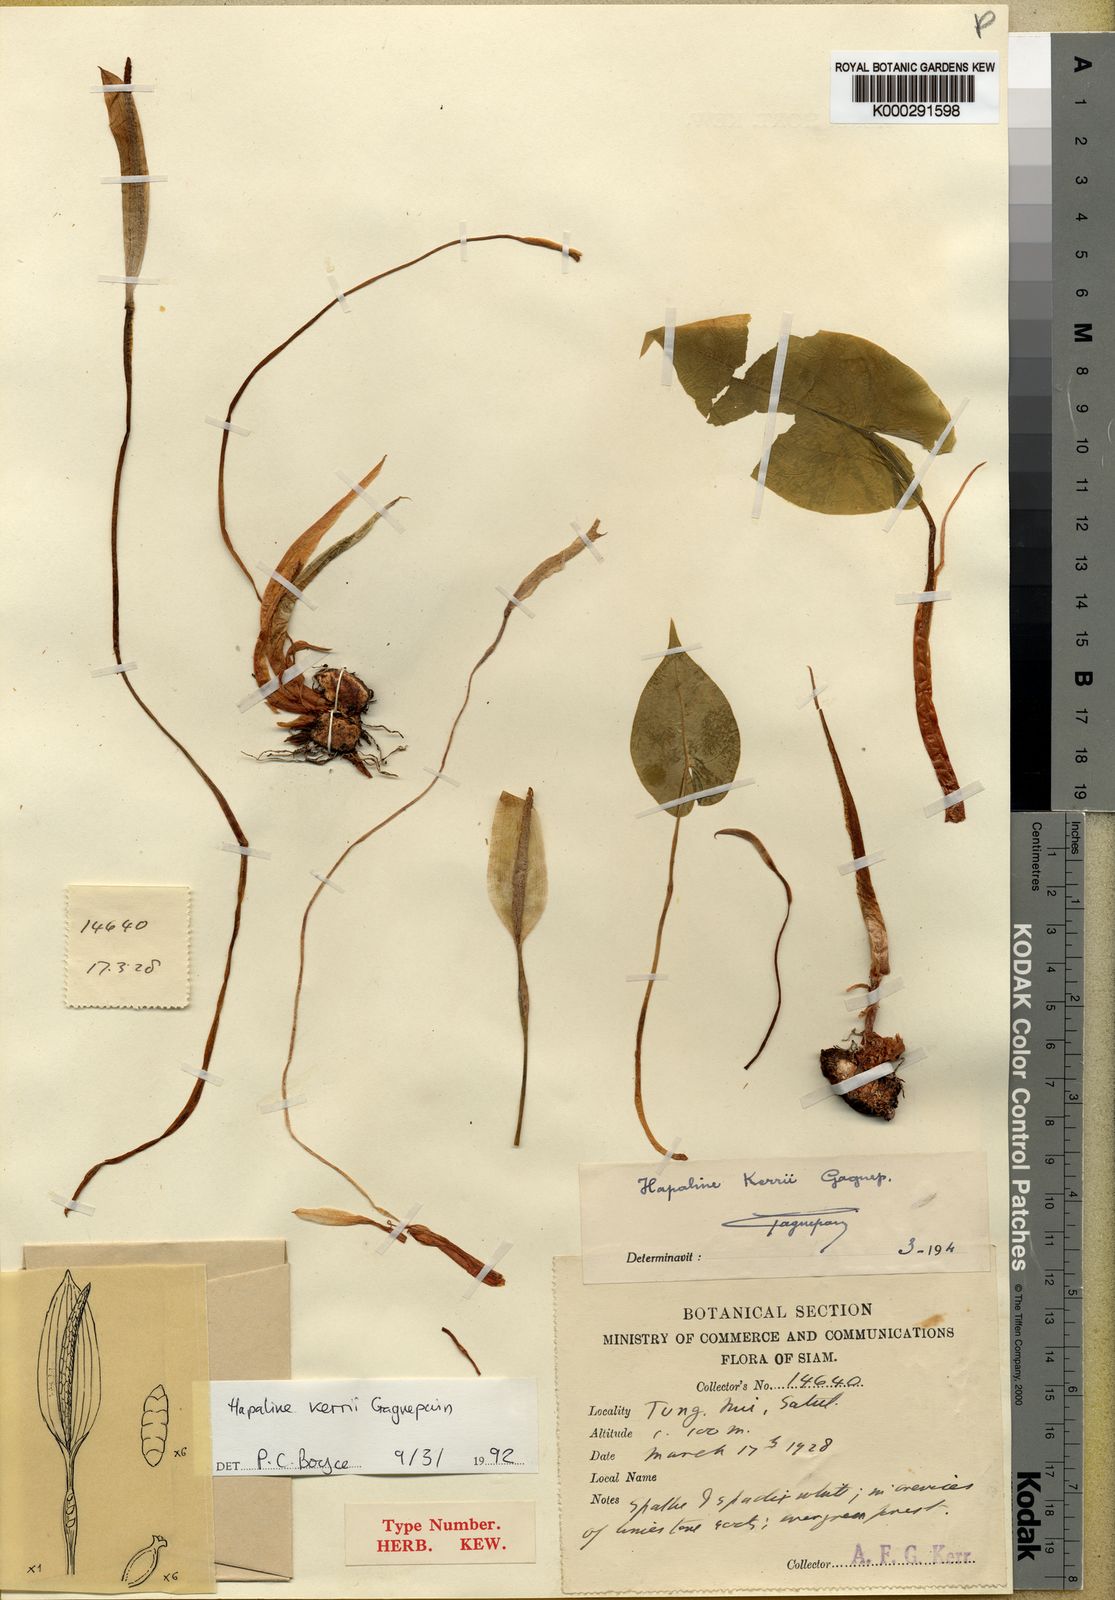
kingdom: Plantae
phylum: Tracheophyta
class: Liliopsida
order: Alismatales
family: Araceae
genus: Hapaline
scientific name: Hapaline kerrii
